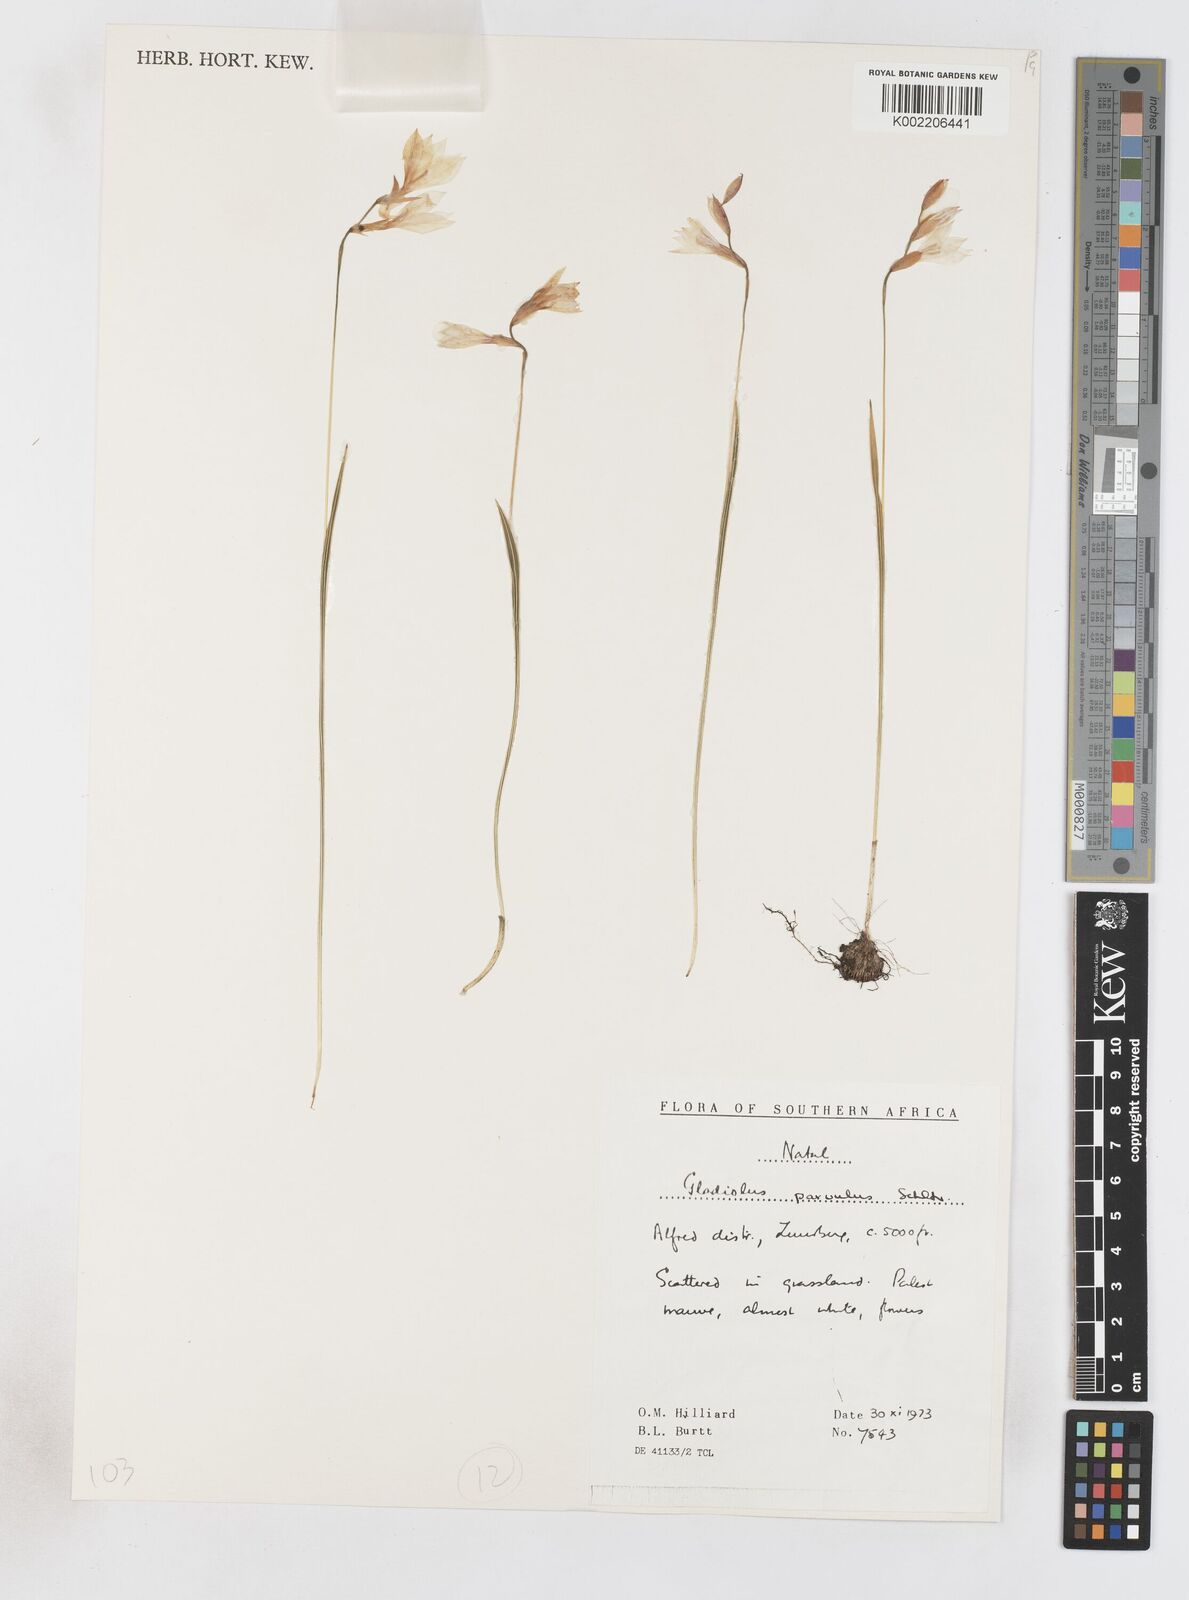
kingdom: Plantae
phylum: Tracheophyta
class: Liliopsida
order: Asparagales
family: Iridaceae
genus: Gladiolus
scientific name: Gladiolus parvulus
